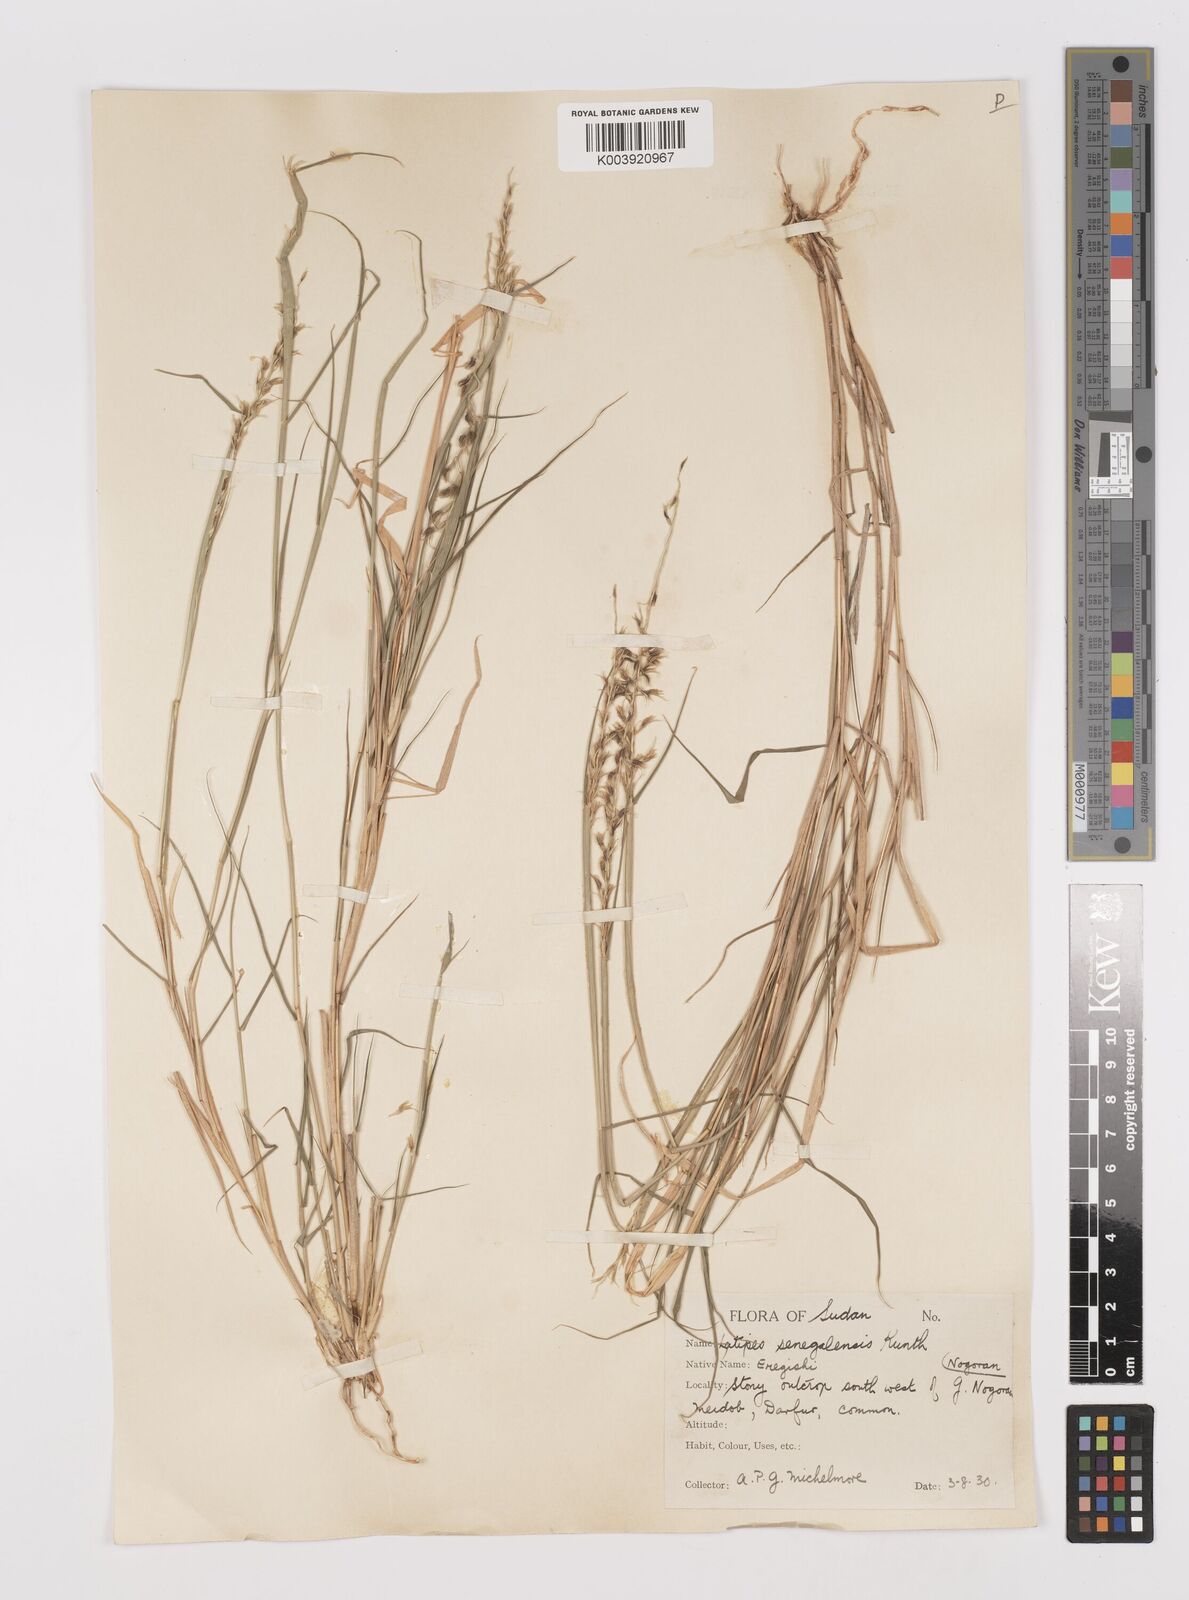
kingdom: Plantae
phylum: Tracheophyta
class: Liliopsida
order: Poales
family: Poaceae
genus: Leptothrium
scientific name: Leptothrium senegalense
